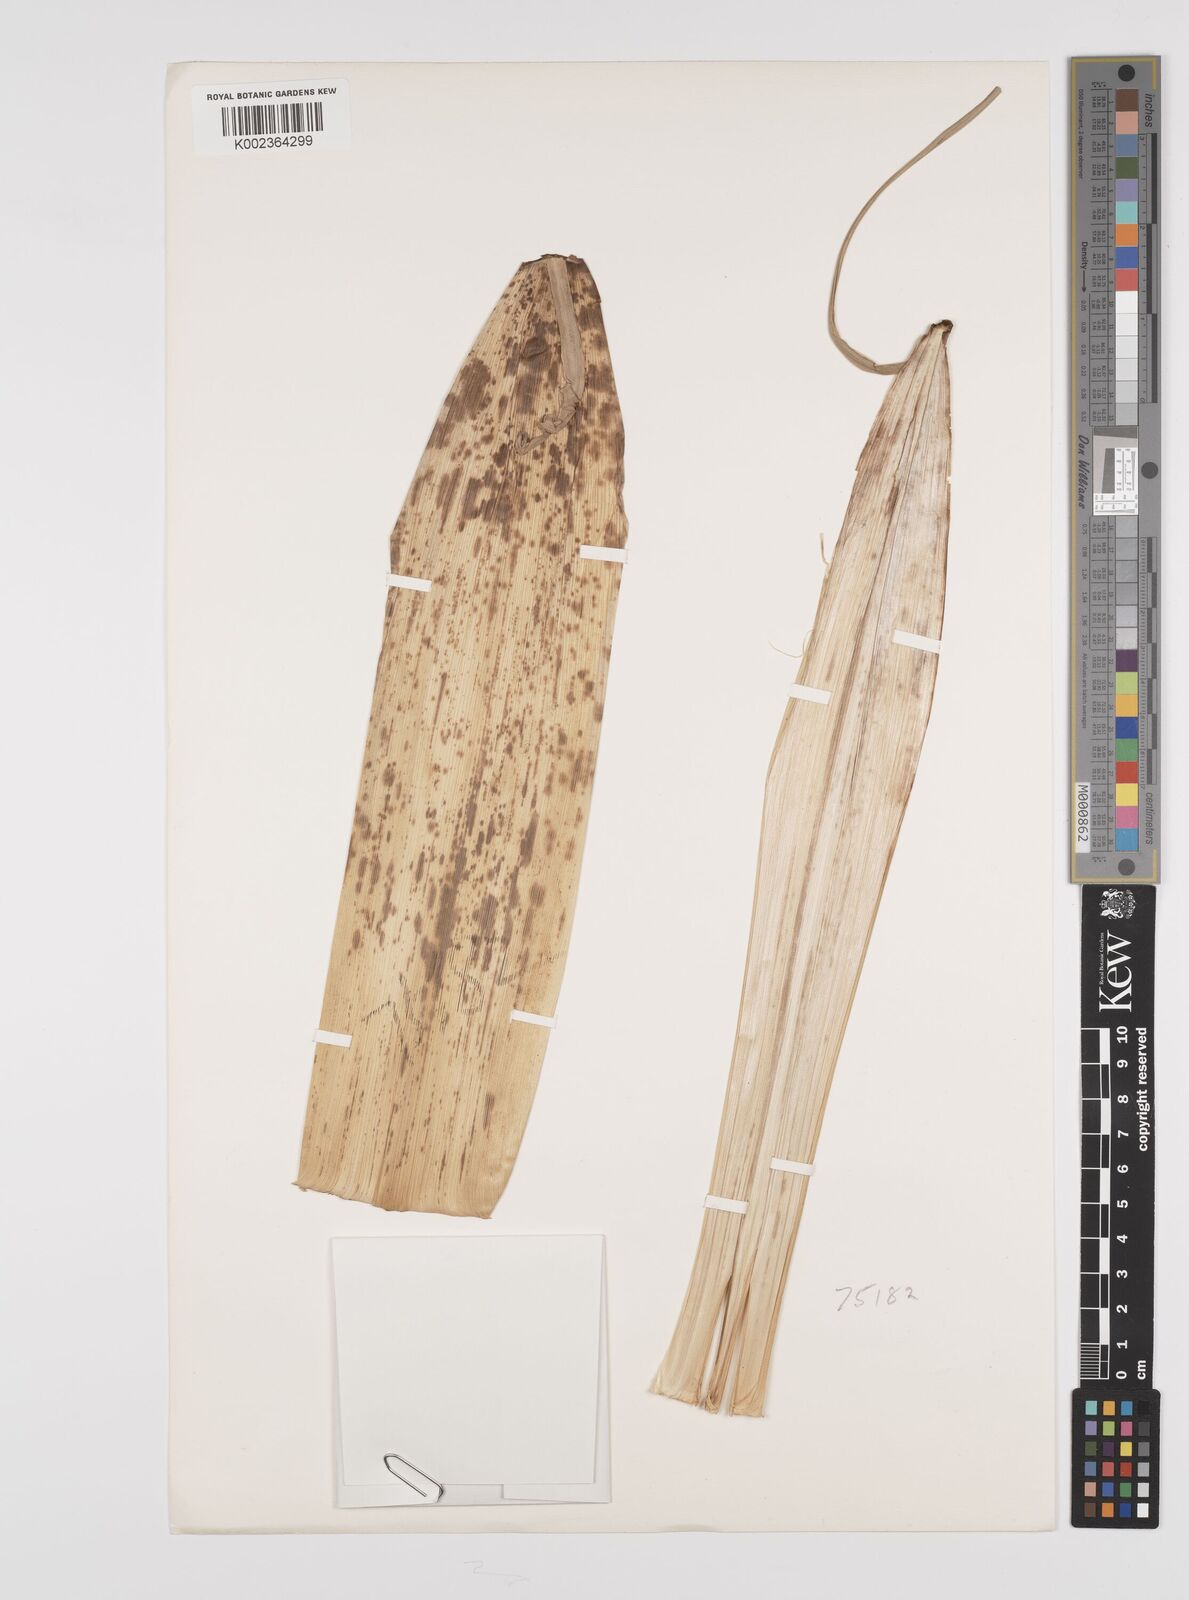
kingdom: Plantae
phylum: Tracheophyta
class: Liliopsida
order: Poales
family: Poaceae
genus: Phyllostachys
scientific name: Phyllostachys vivax
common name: Smooth-sheath bamboo
